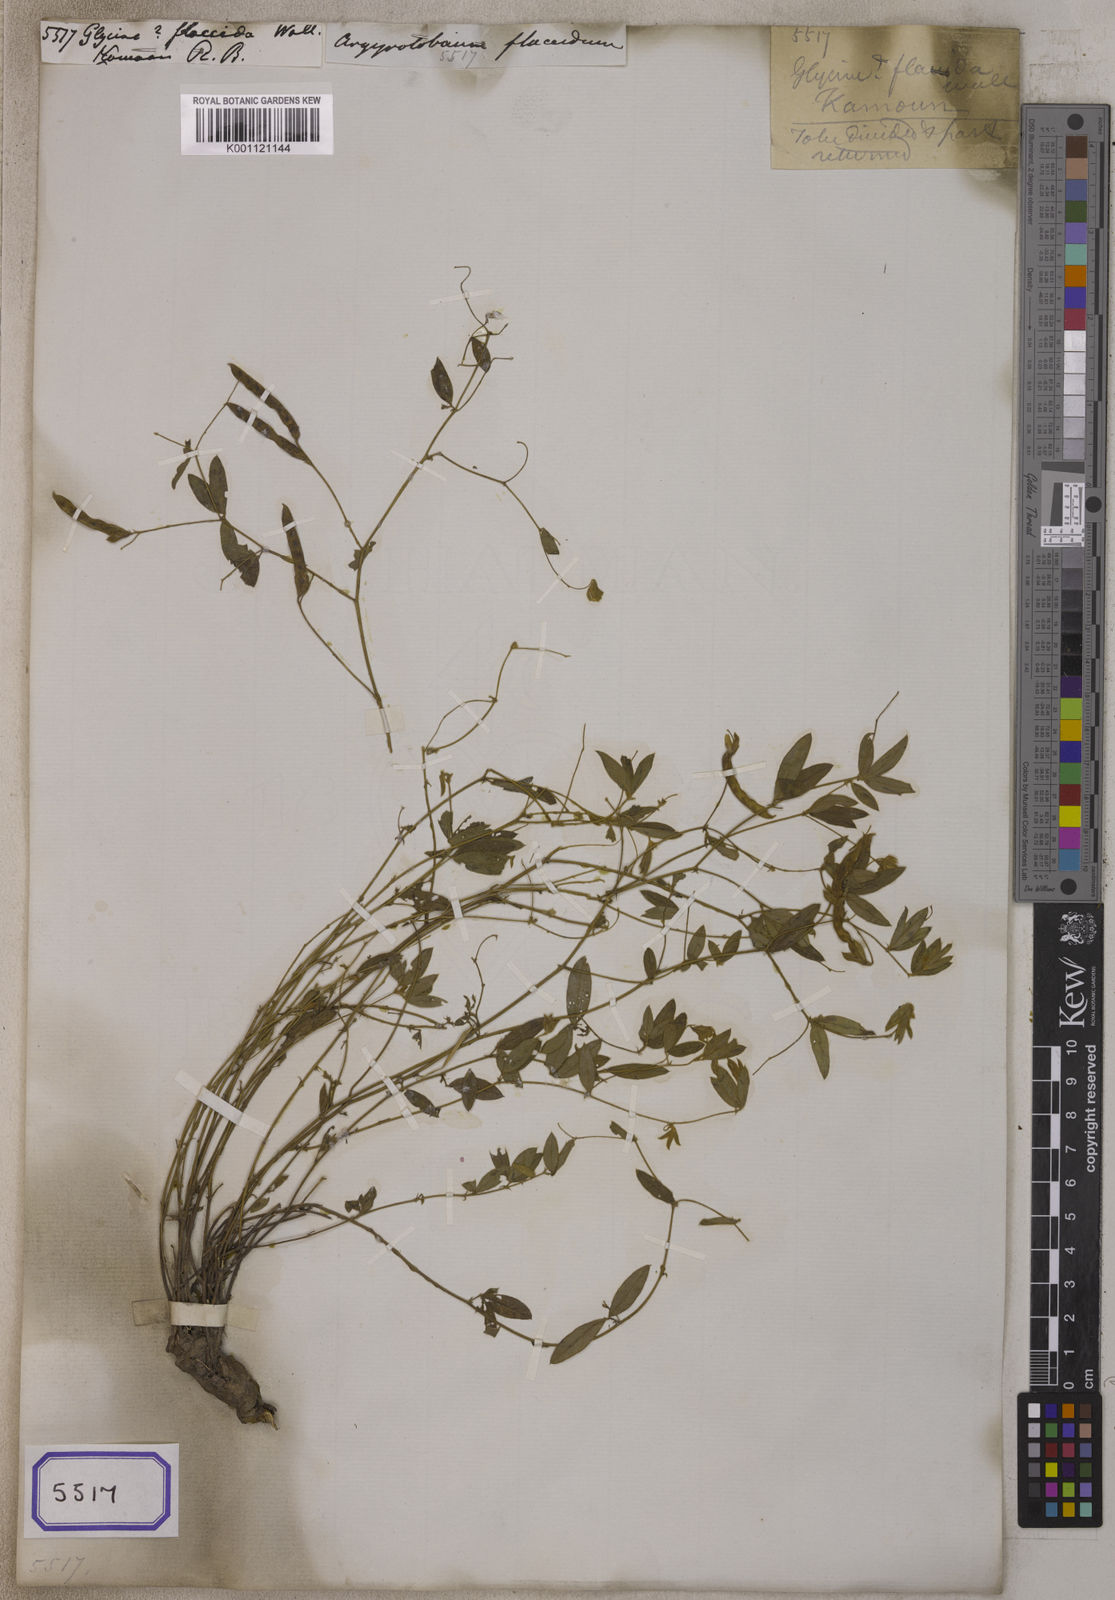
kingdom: Plantae
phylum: Tracheophyta
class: Magnoliopsida
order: Fabales
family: Fabaceae
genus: Argyrolobium
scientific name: Argyrolobium flaccidum
